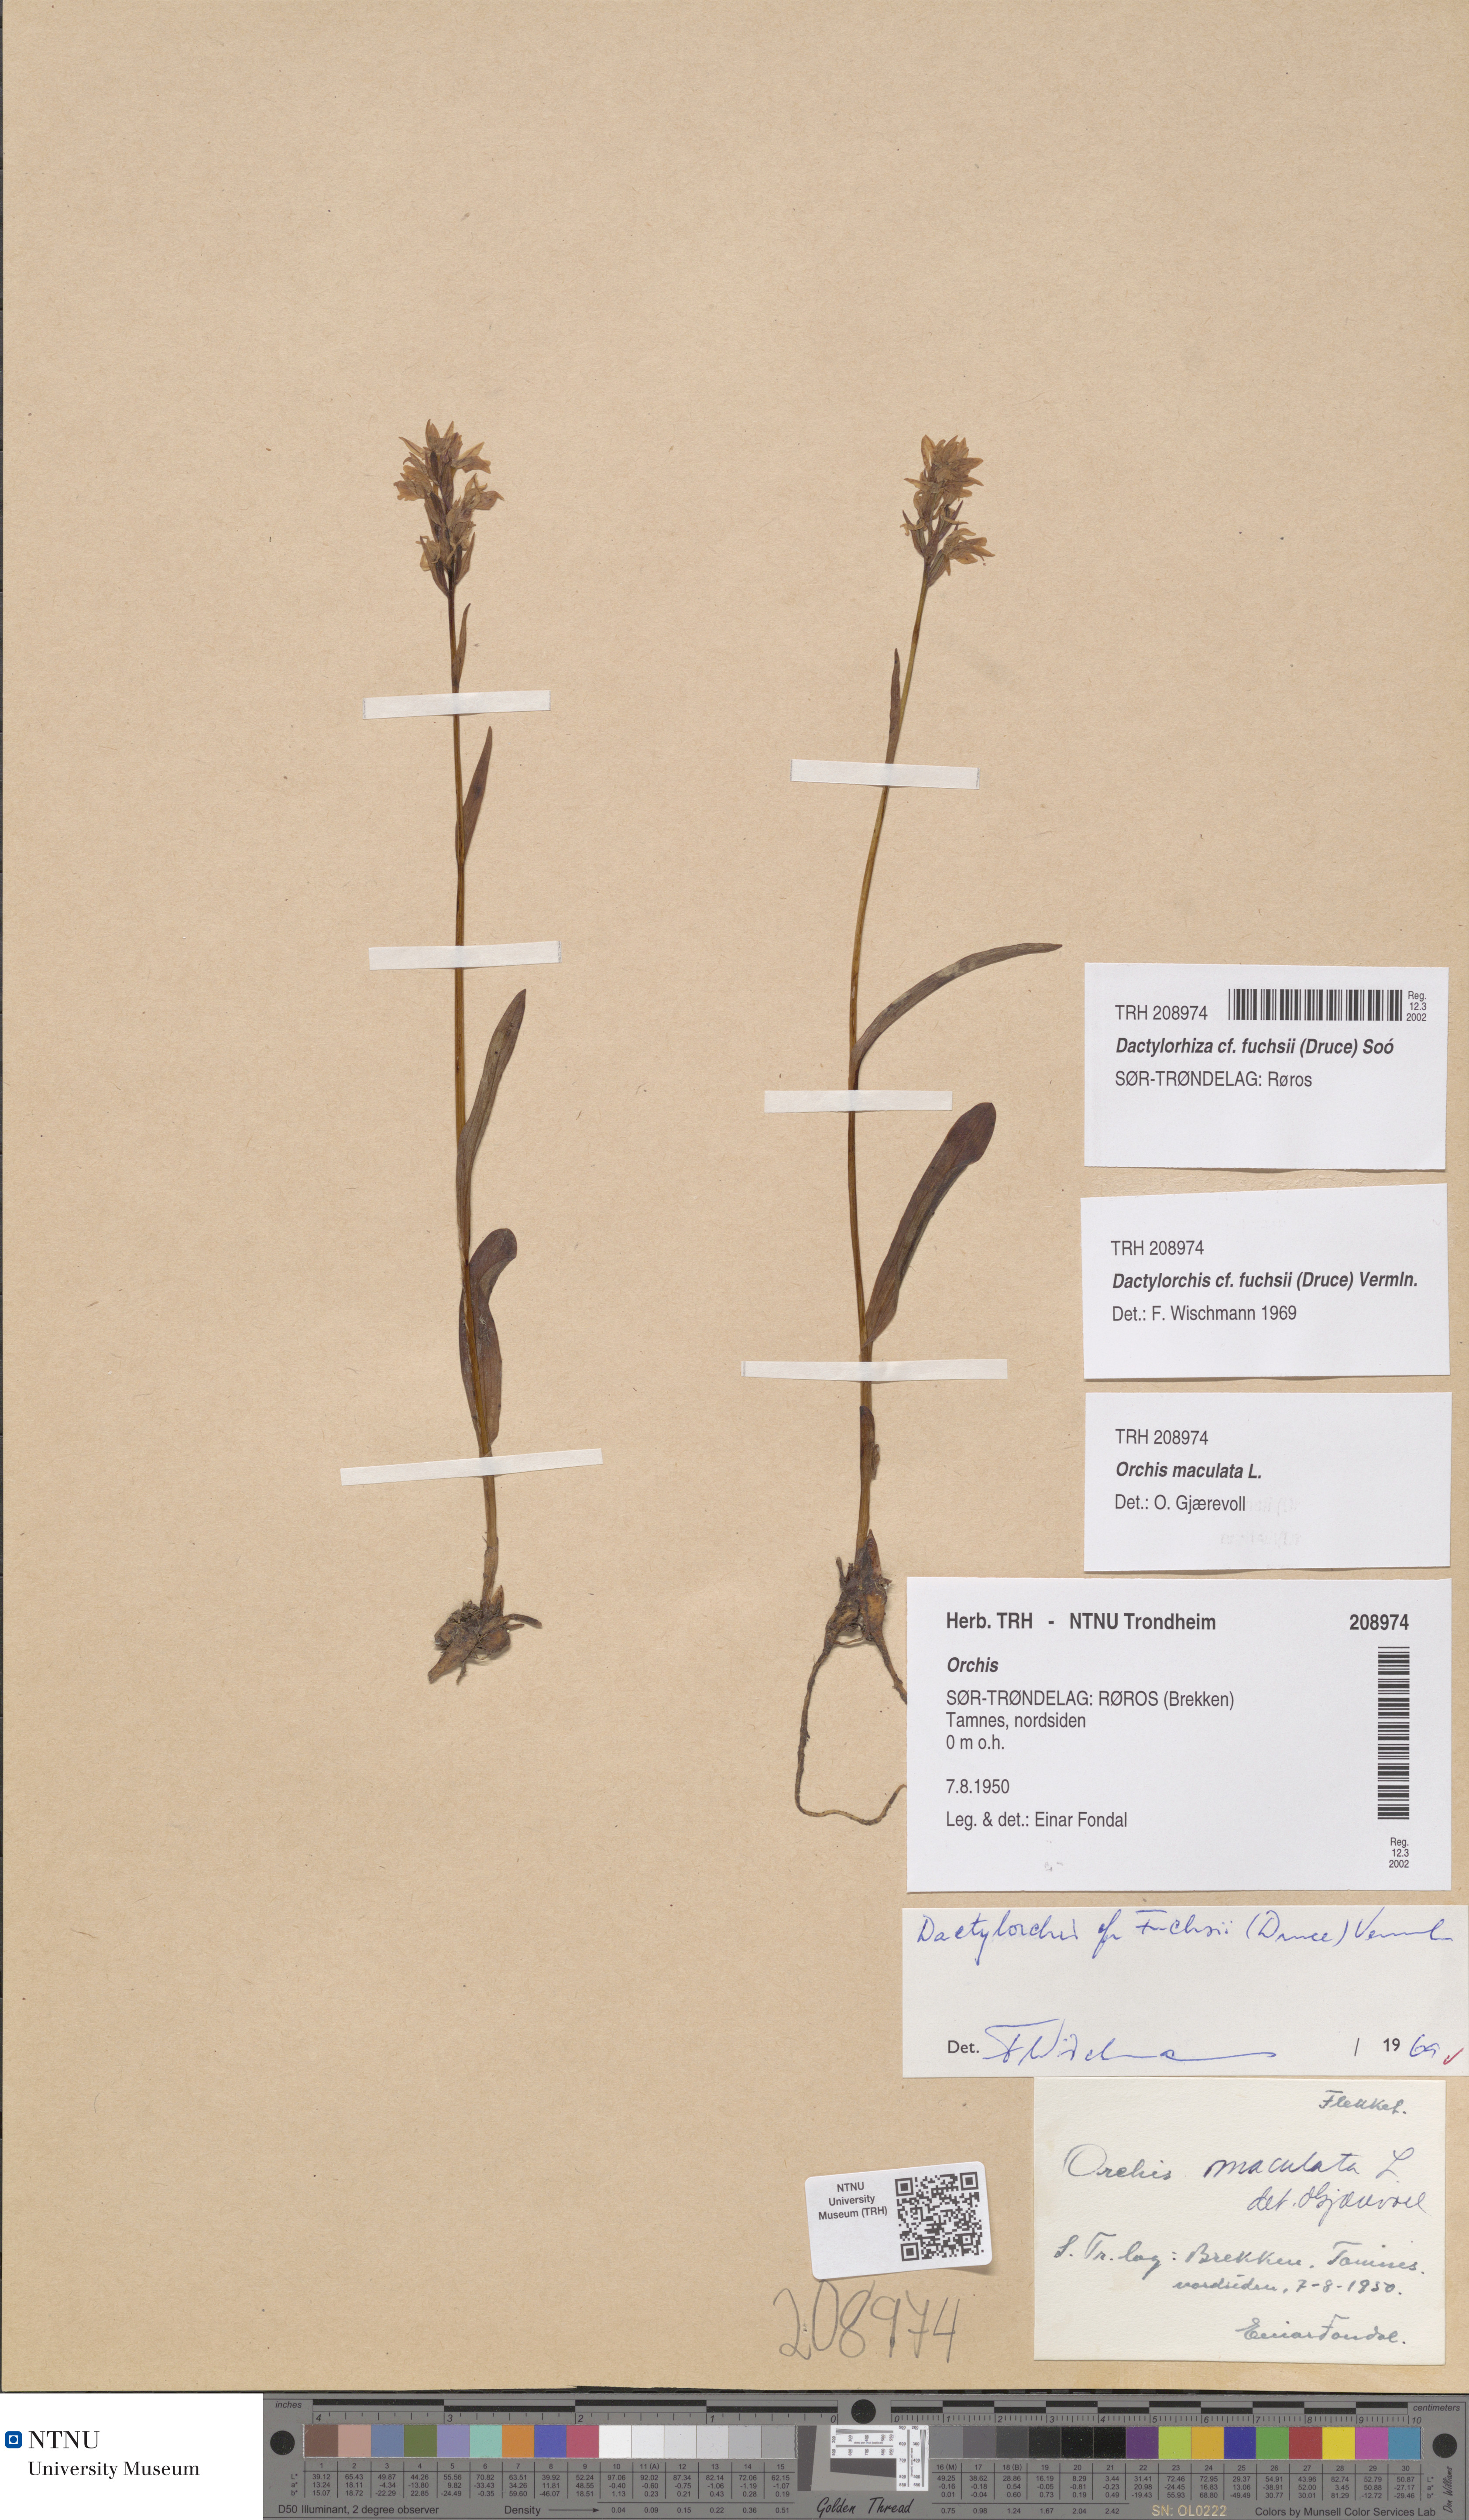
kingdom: Plantae
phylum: Tracheophyta
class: Liliopsida
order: Asparagales
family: Orchidaceae
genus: Dactylorhiza
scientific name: Dactylorhiza maculata
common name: Heath spotted-orchid
